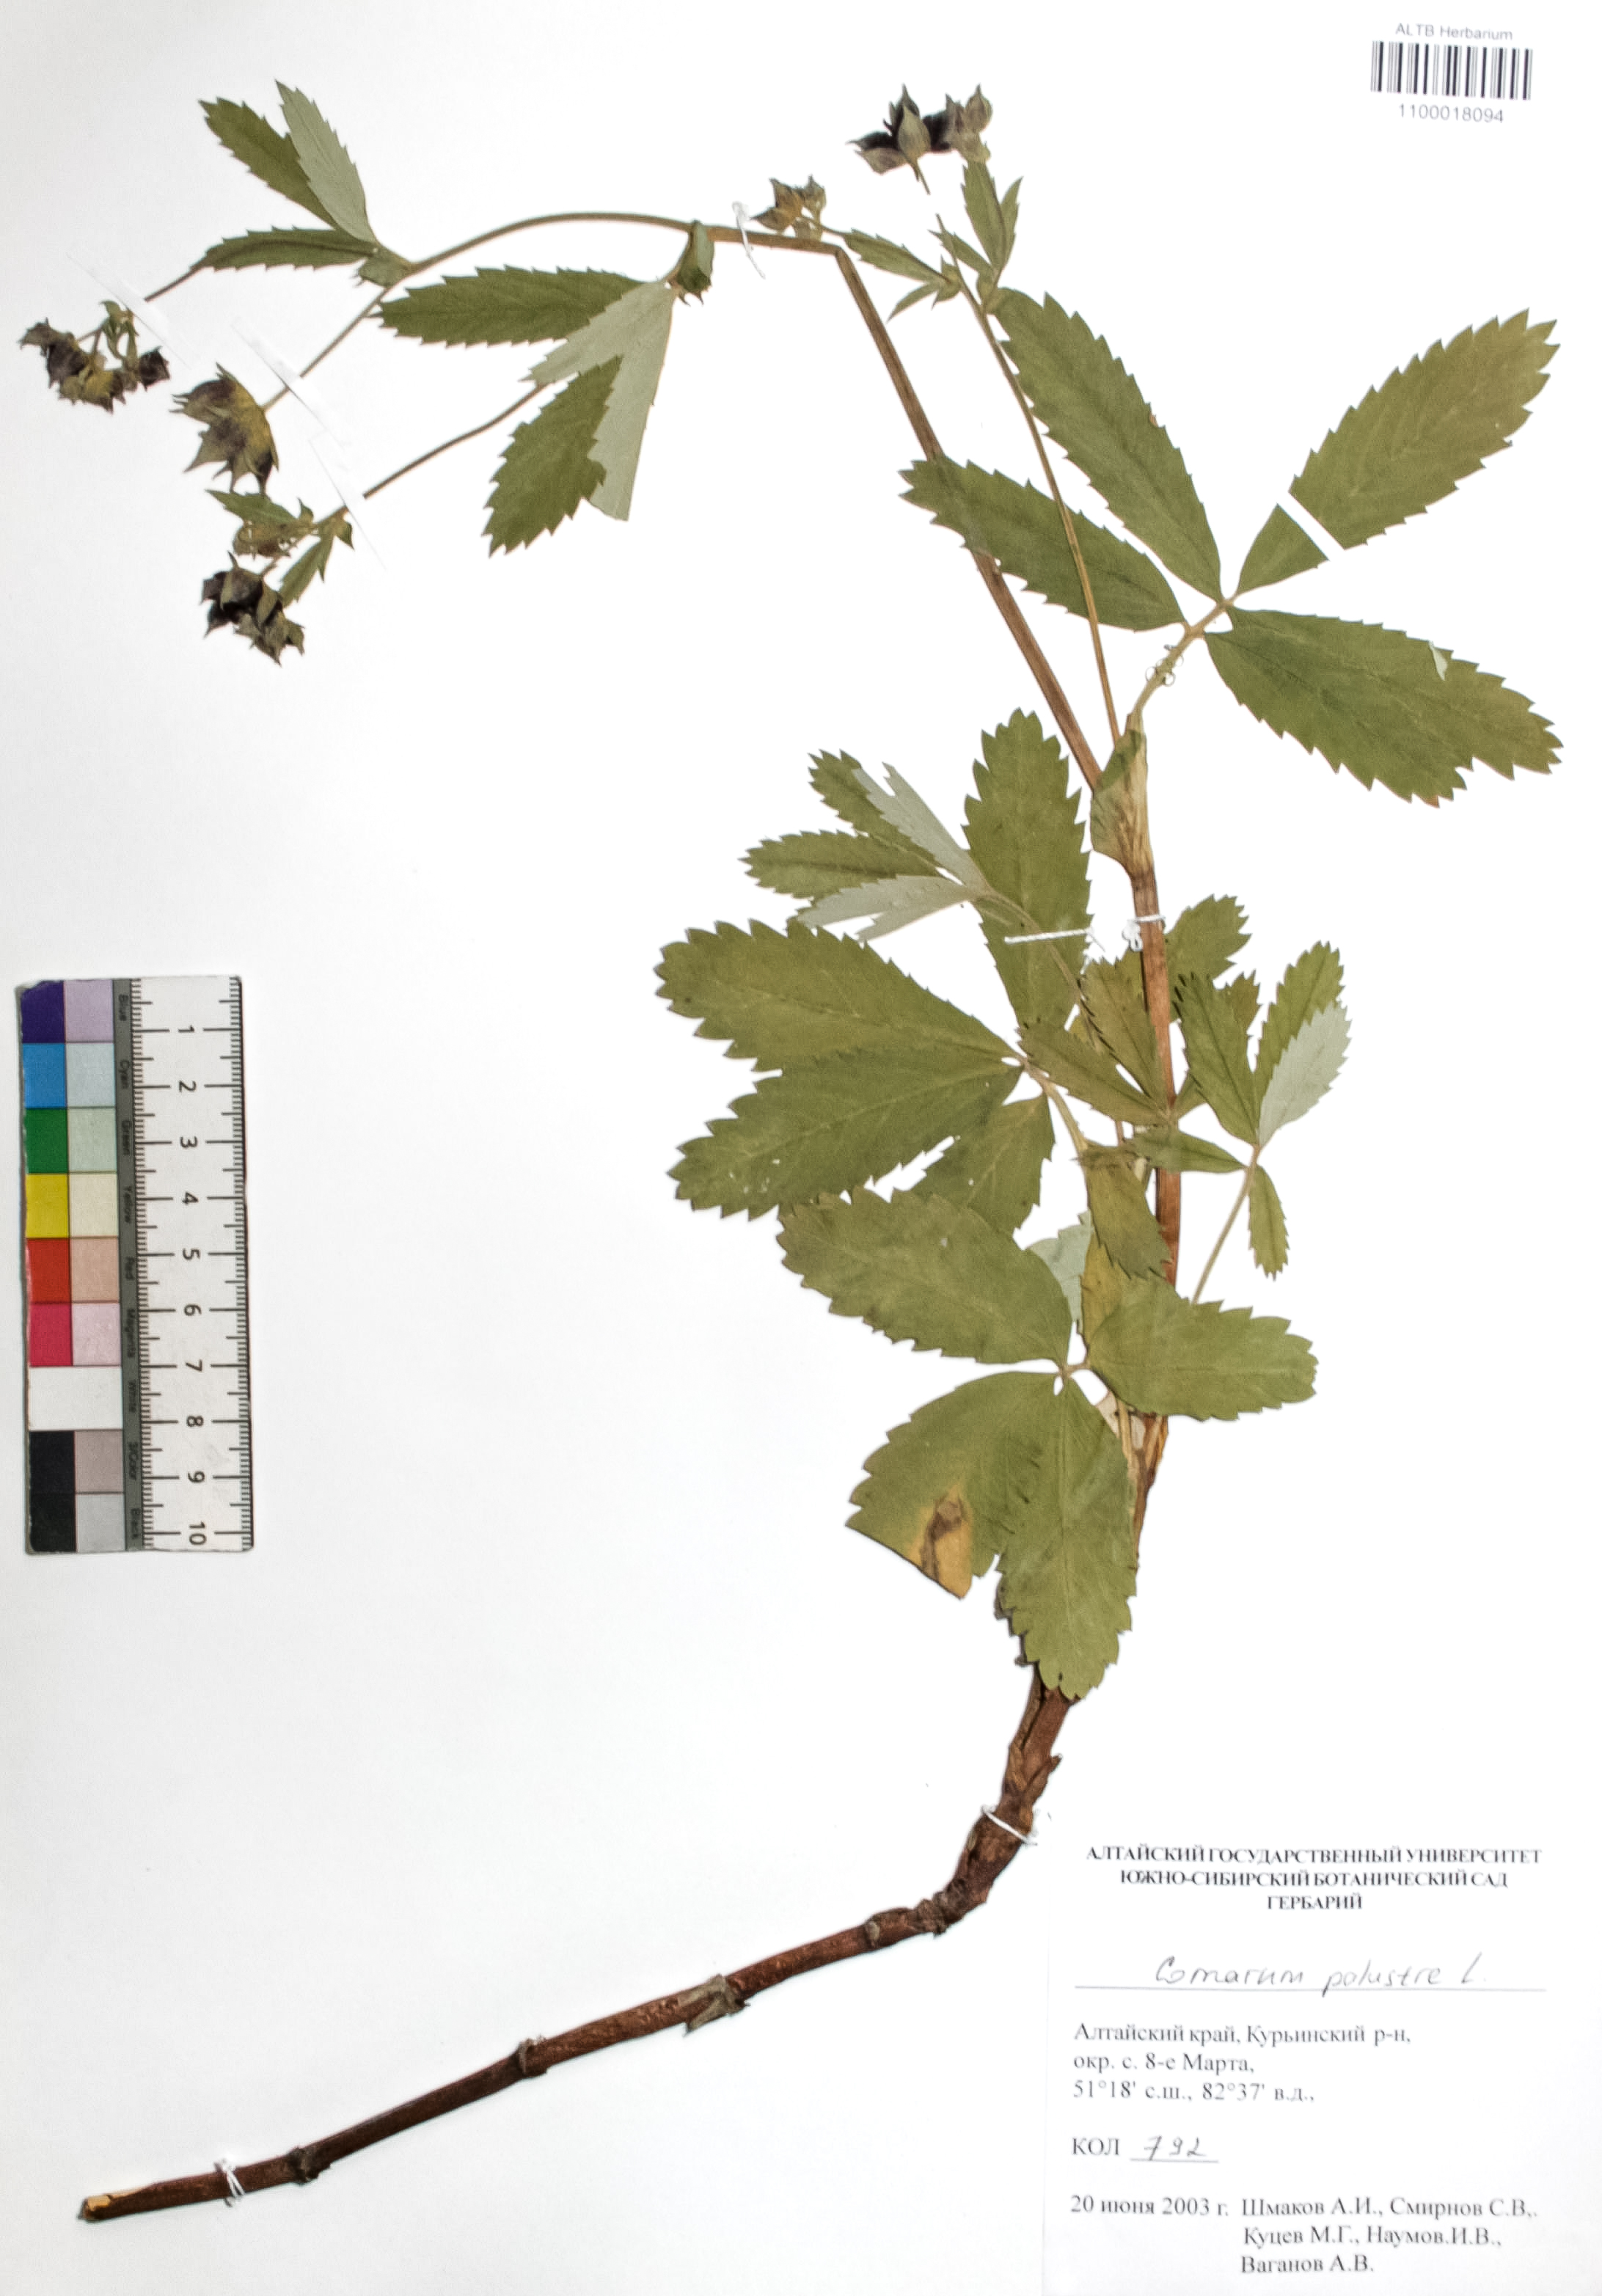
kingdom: Plantae
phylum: Tracheophyta
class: Magnoliopsida
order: Rosales
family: Rosaceae
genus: Comarum
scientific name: Comarum palustre
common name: Marsh cinquefoil
